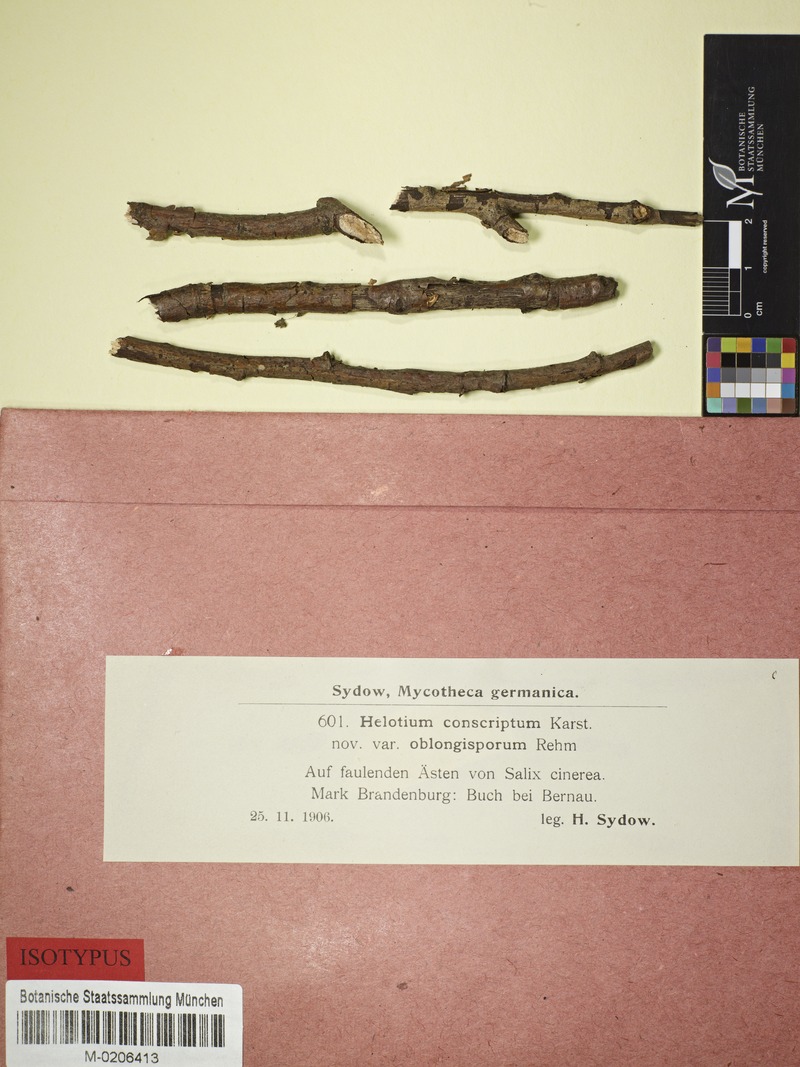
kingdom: Fungi
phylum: Ascomycota
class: Leotiomycetes
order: Helotiales
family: Helotiaceae
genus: Hymenoscyphus
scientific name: Hymenoscyphus calyculus
